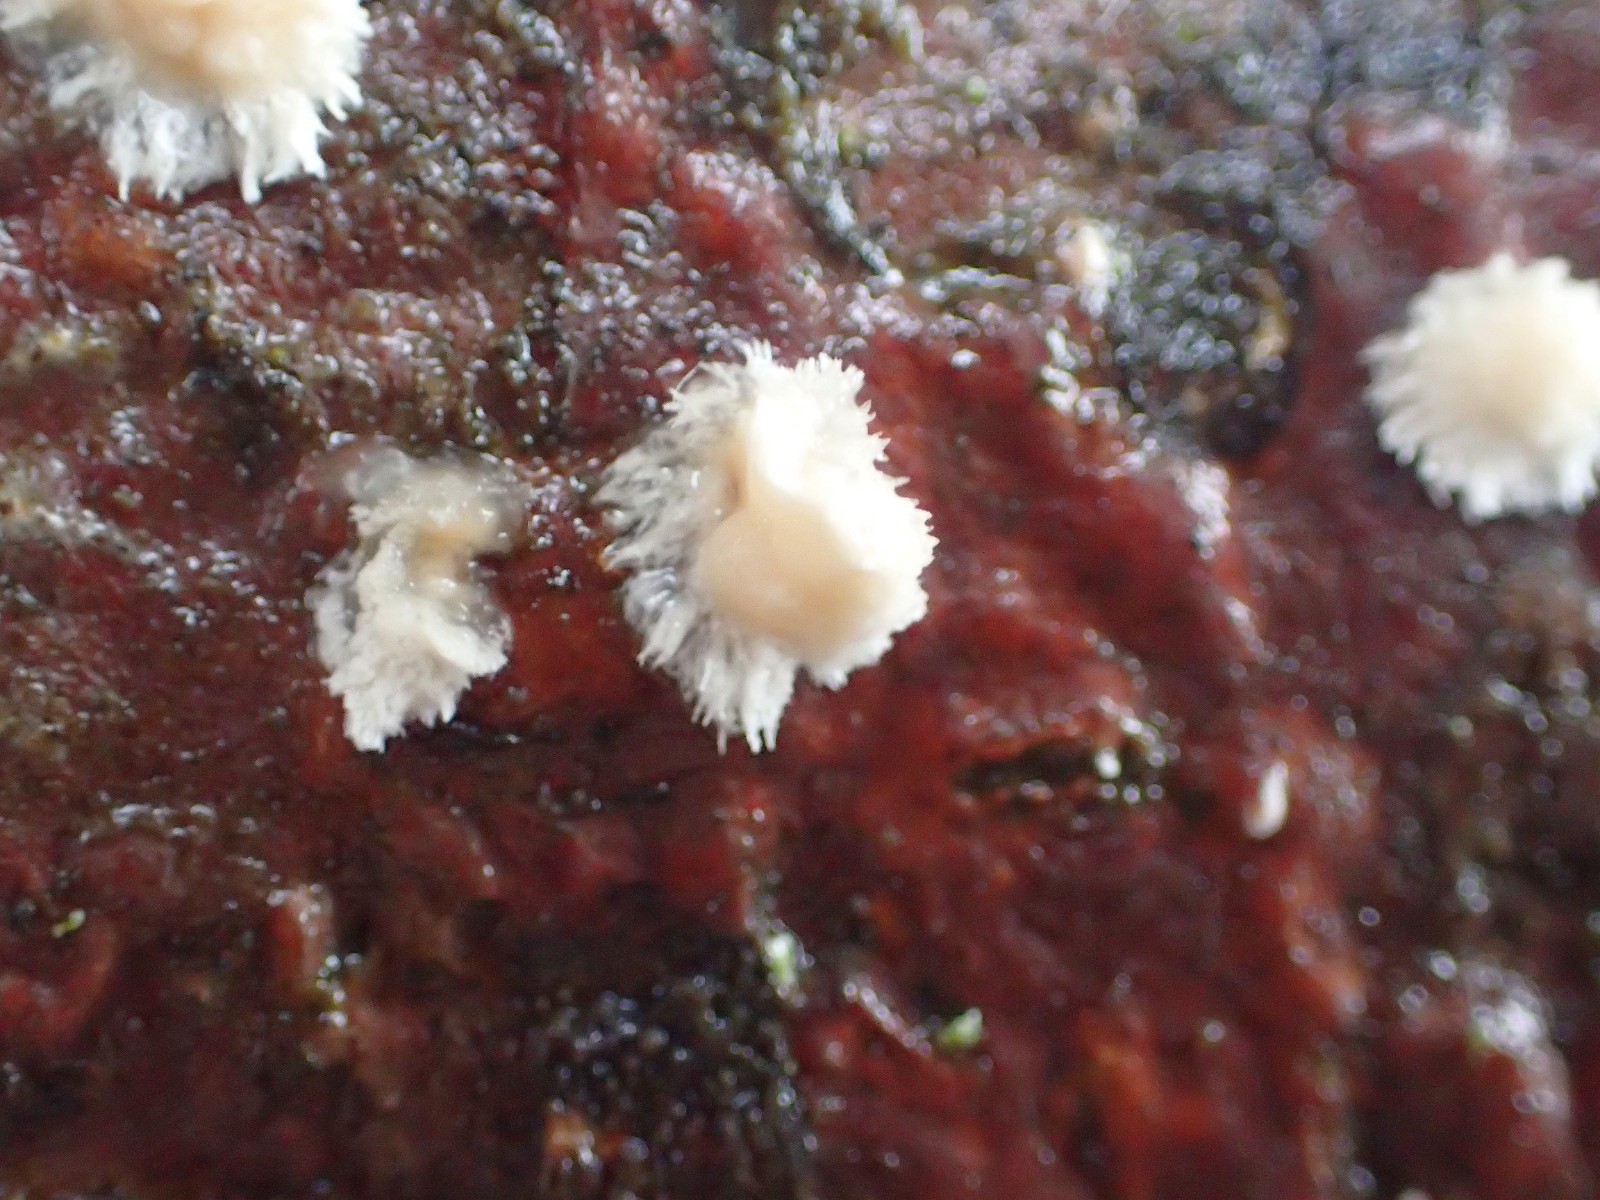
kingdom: Fungi
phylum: Basidiomycota
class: Agaricomycetes
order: Agaricales
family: Physalacriaceae
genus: Cylindrobasidium
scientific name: Cylindrobasidium evolvens
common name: sprækkehinde
